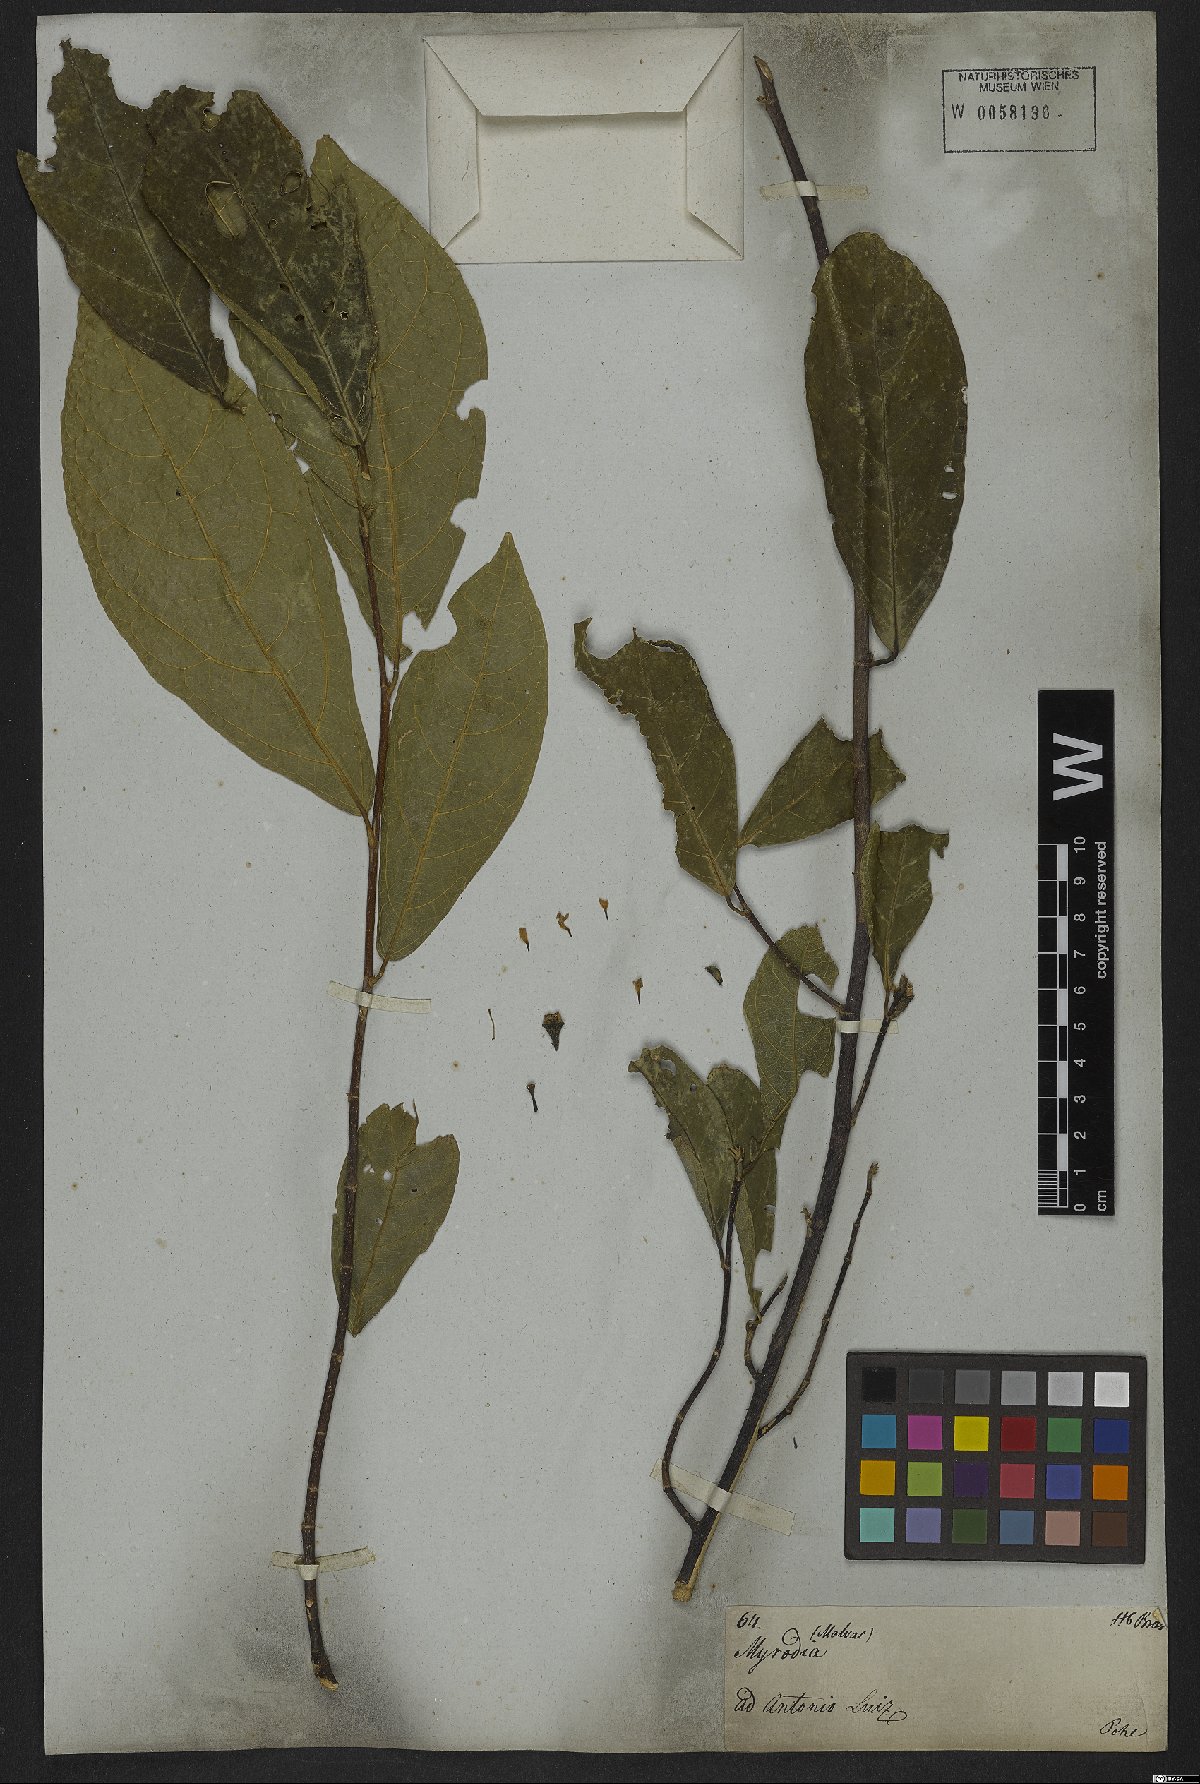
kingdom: Plantae
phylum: Tracheophyta
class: Magnoliopsida
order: Malvales
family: Malvaceae
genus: Quararibea
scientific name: Quararibea turbinata
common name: Swizzlestick-tree
